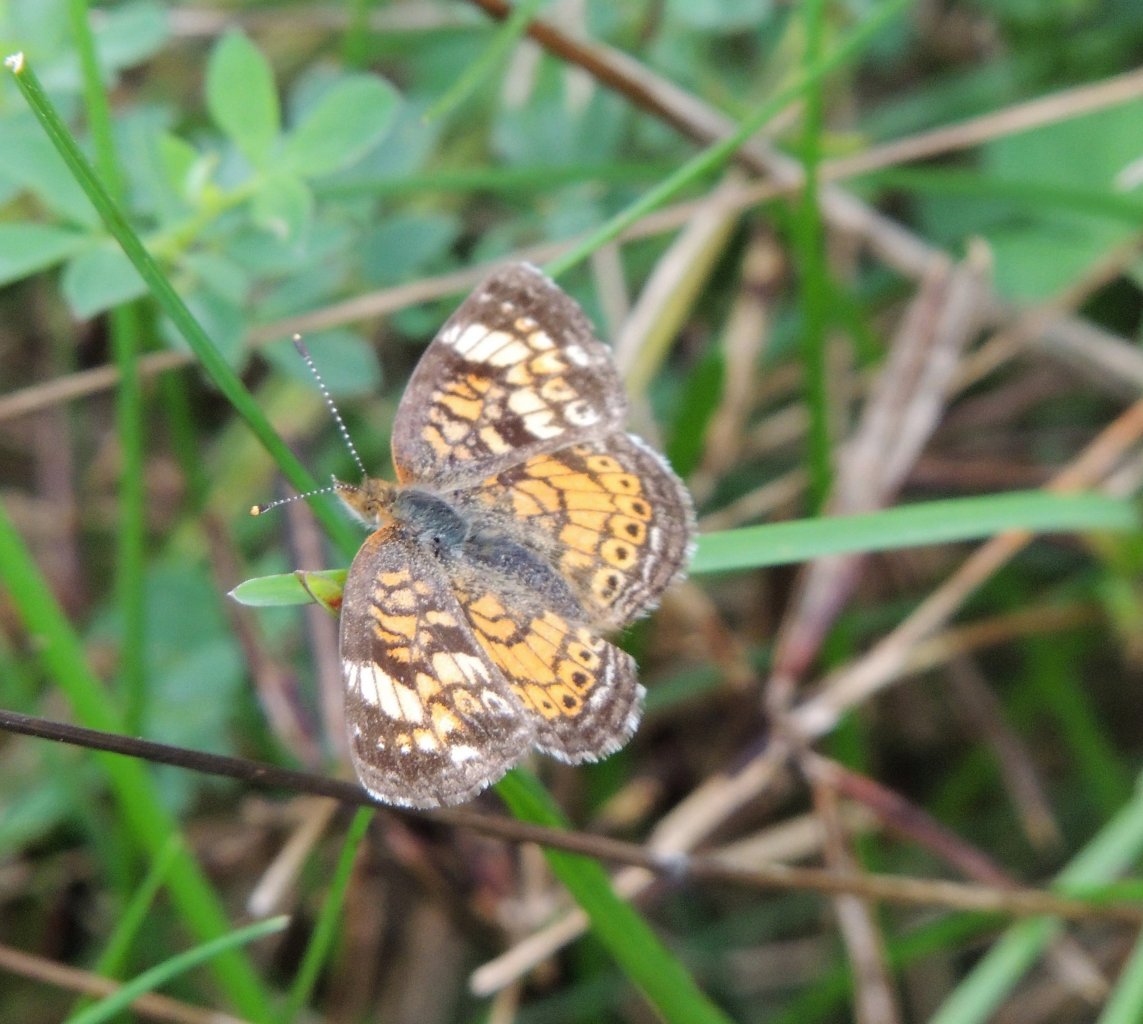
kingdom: Animalia
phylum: Arthropoda
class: Insecta
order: Lepidoptera
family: Nymphalidae
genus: Phyciodes
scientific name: Phyciodes tharos
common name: Northern Crescent
